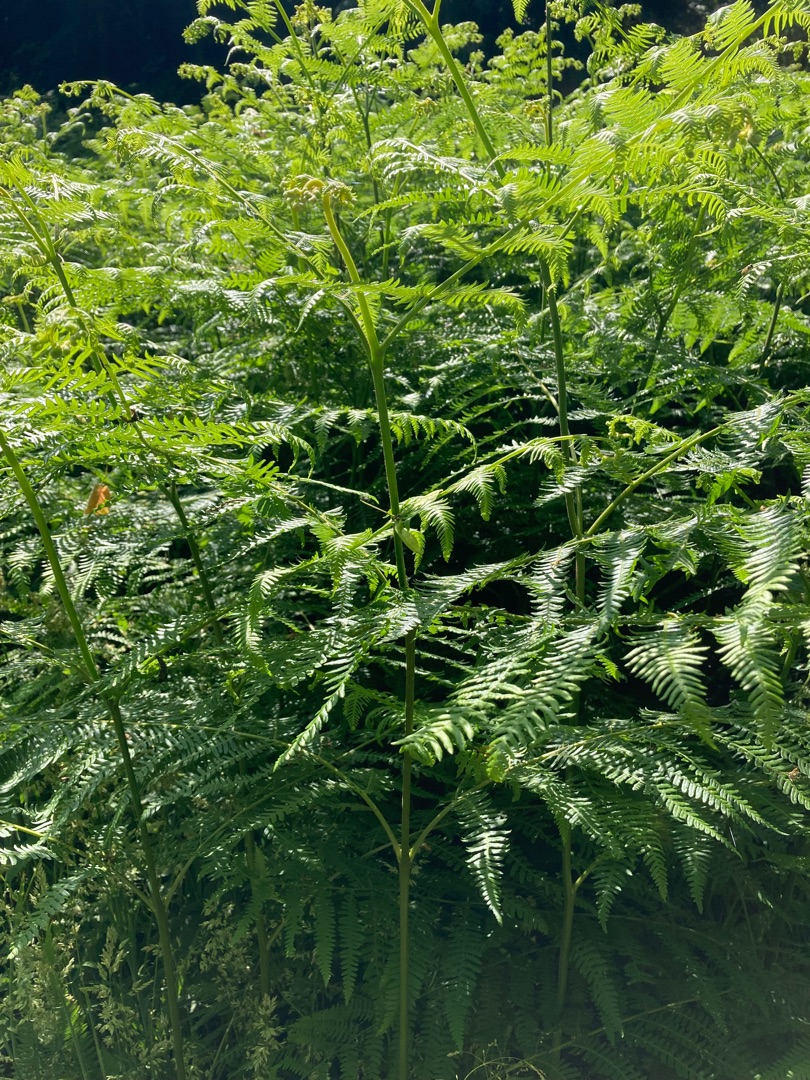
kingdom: Plantae
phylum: Tracheophyta
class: Polypodiopsida
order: Polypodiales
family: Dennstaedtiaceae
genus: Pteridium
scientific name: Pteridium aquilinum
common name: Ørnebregne
